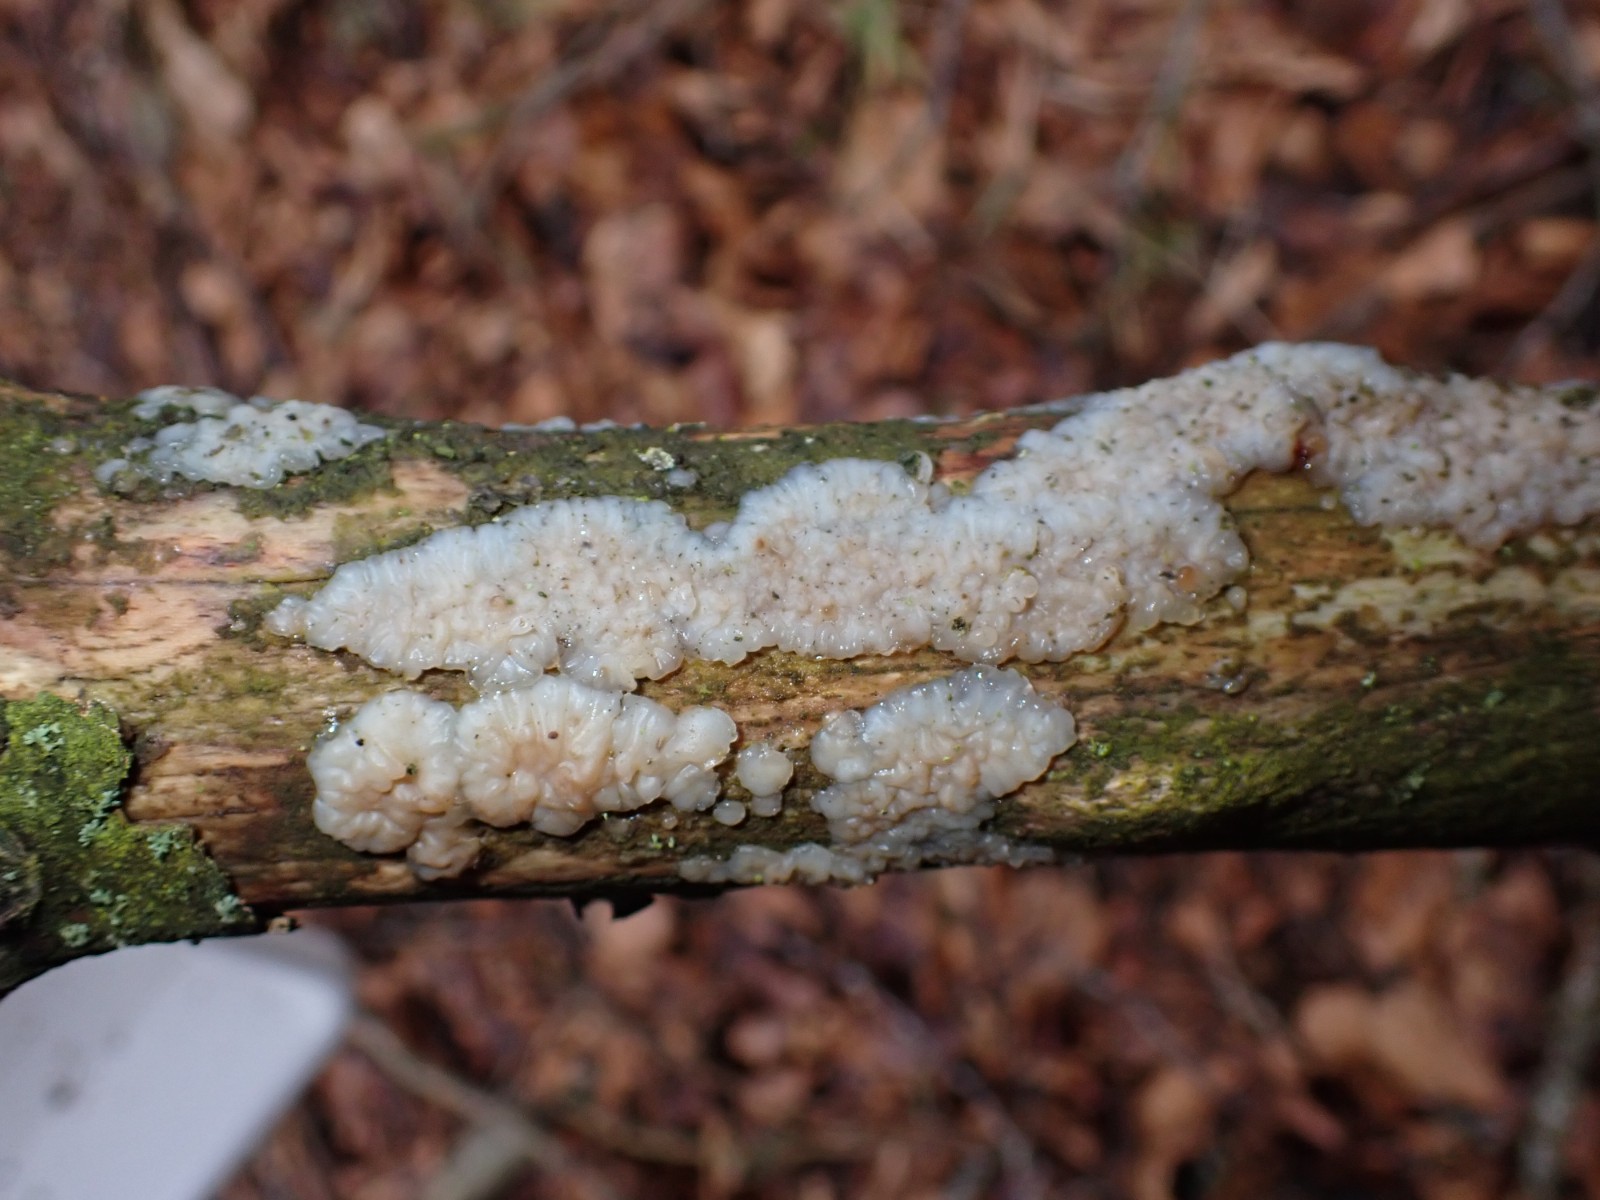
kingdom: Fungi
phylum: Basidiomycota
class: Agaricomycetes
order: Auriculariales
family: Auriculariaceae
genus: Exidia
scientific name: Exidia thuretiana
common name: hvidlig bævretop
